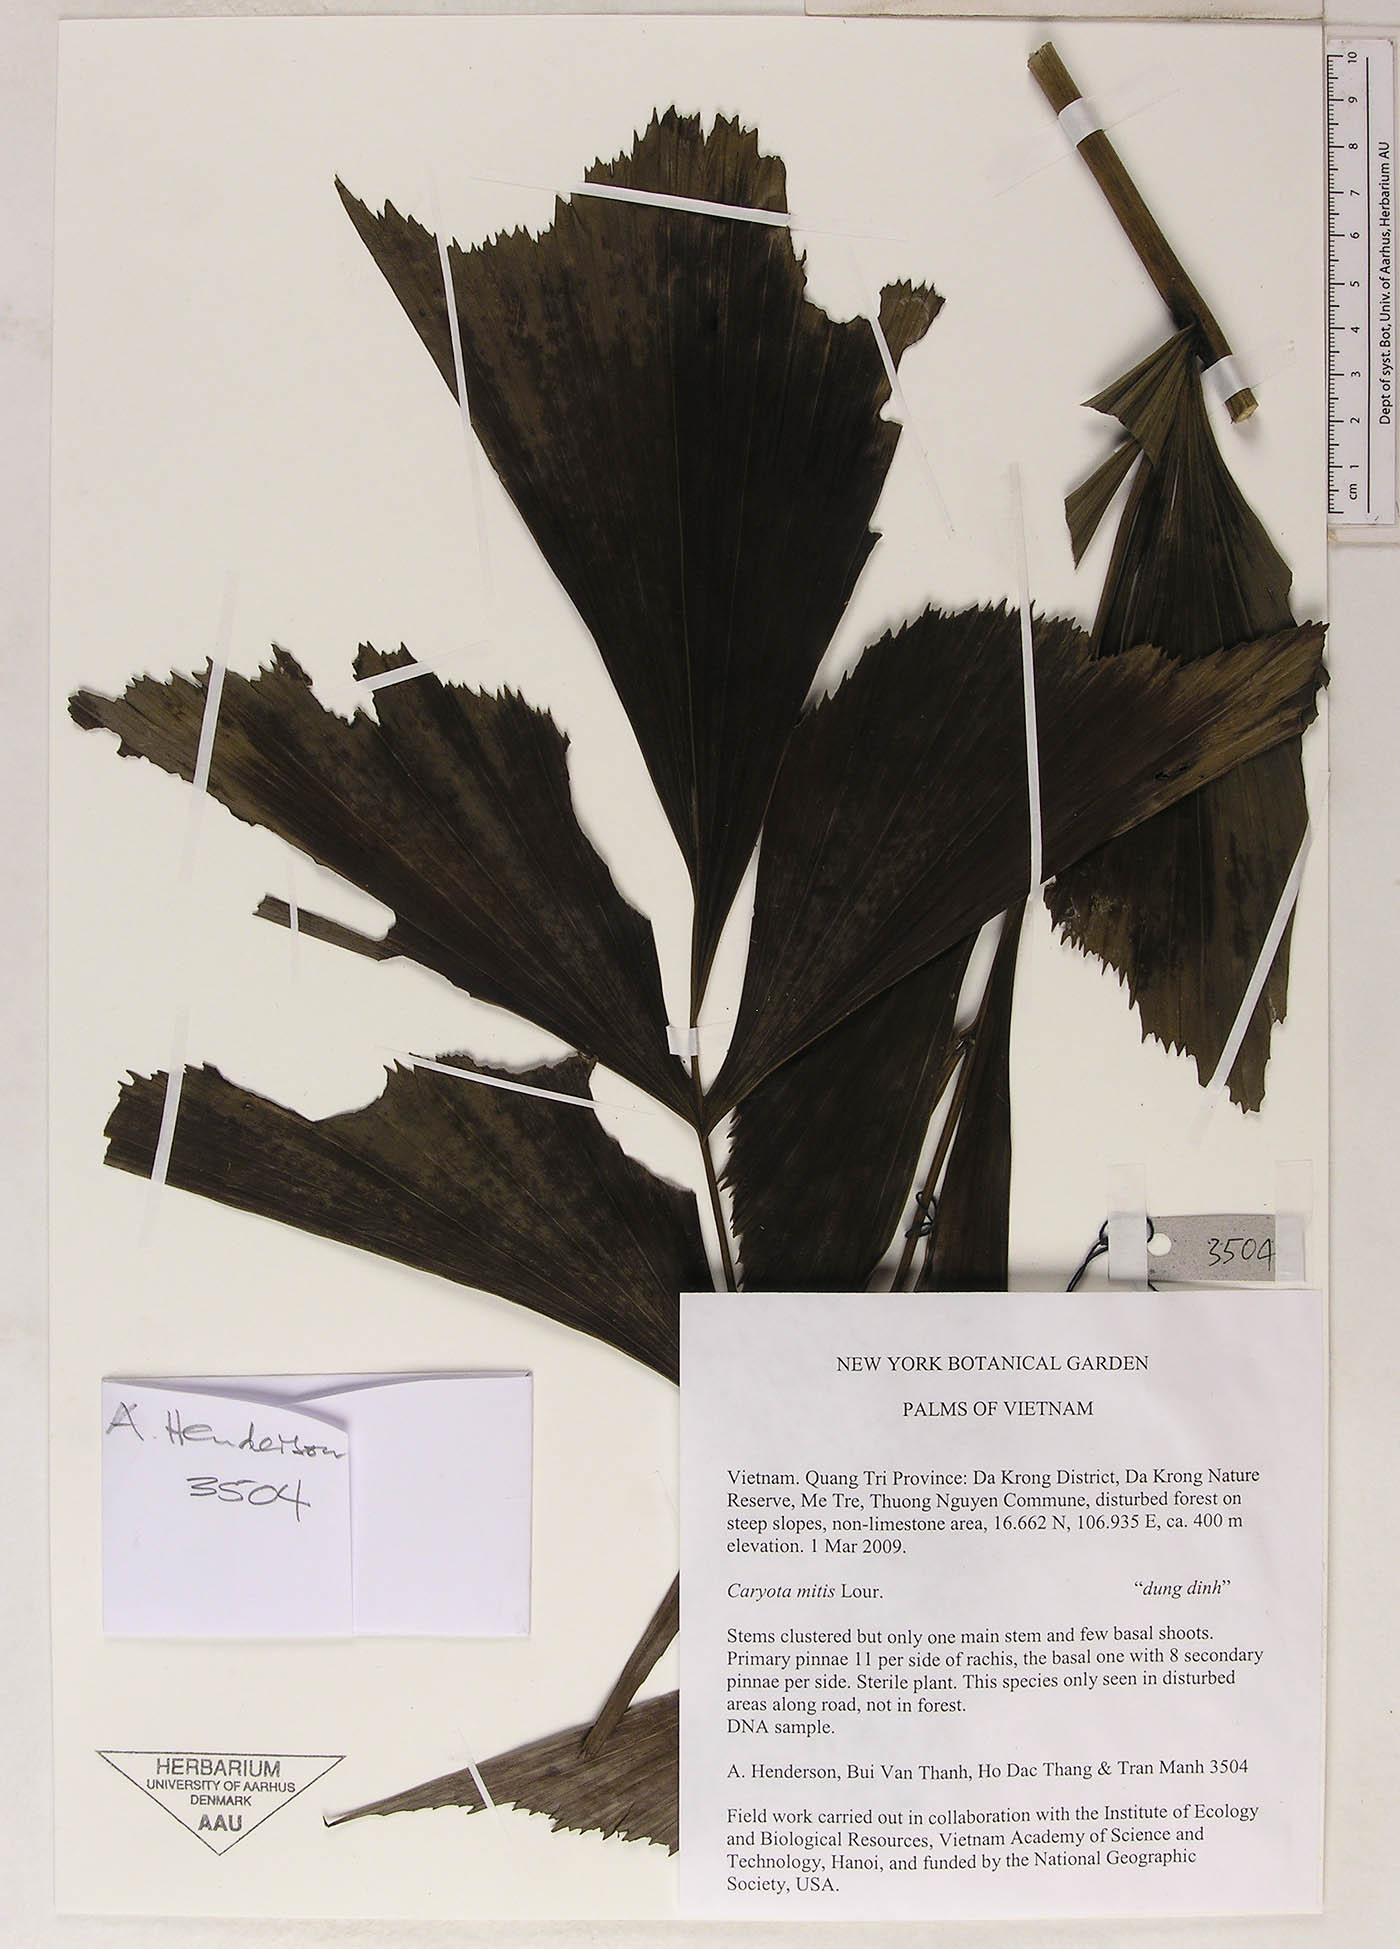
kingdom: Plantae
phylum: Tracheophyta
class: Liliopsida
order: Arecales
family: Arecaceae
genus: Caryota
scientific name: Caryota mitis
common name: Burmese fishtail palm
